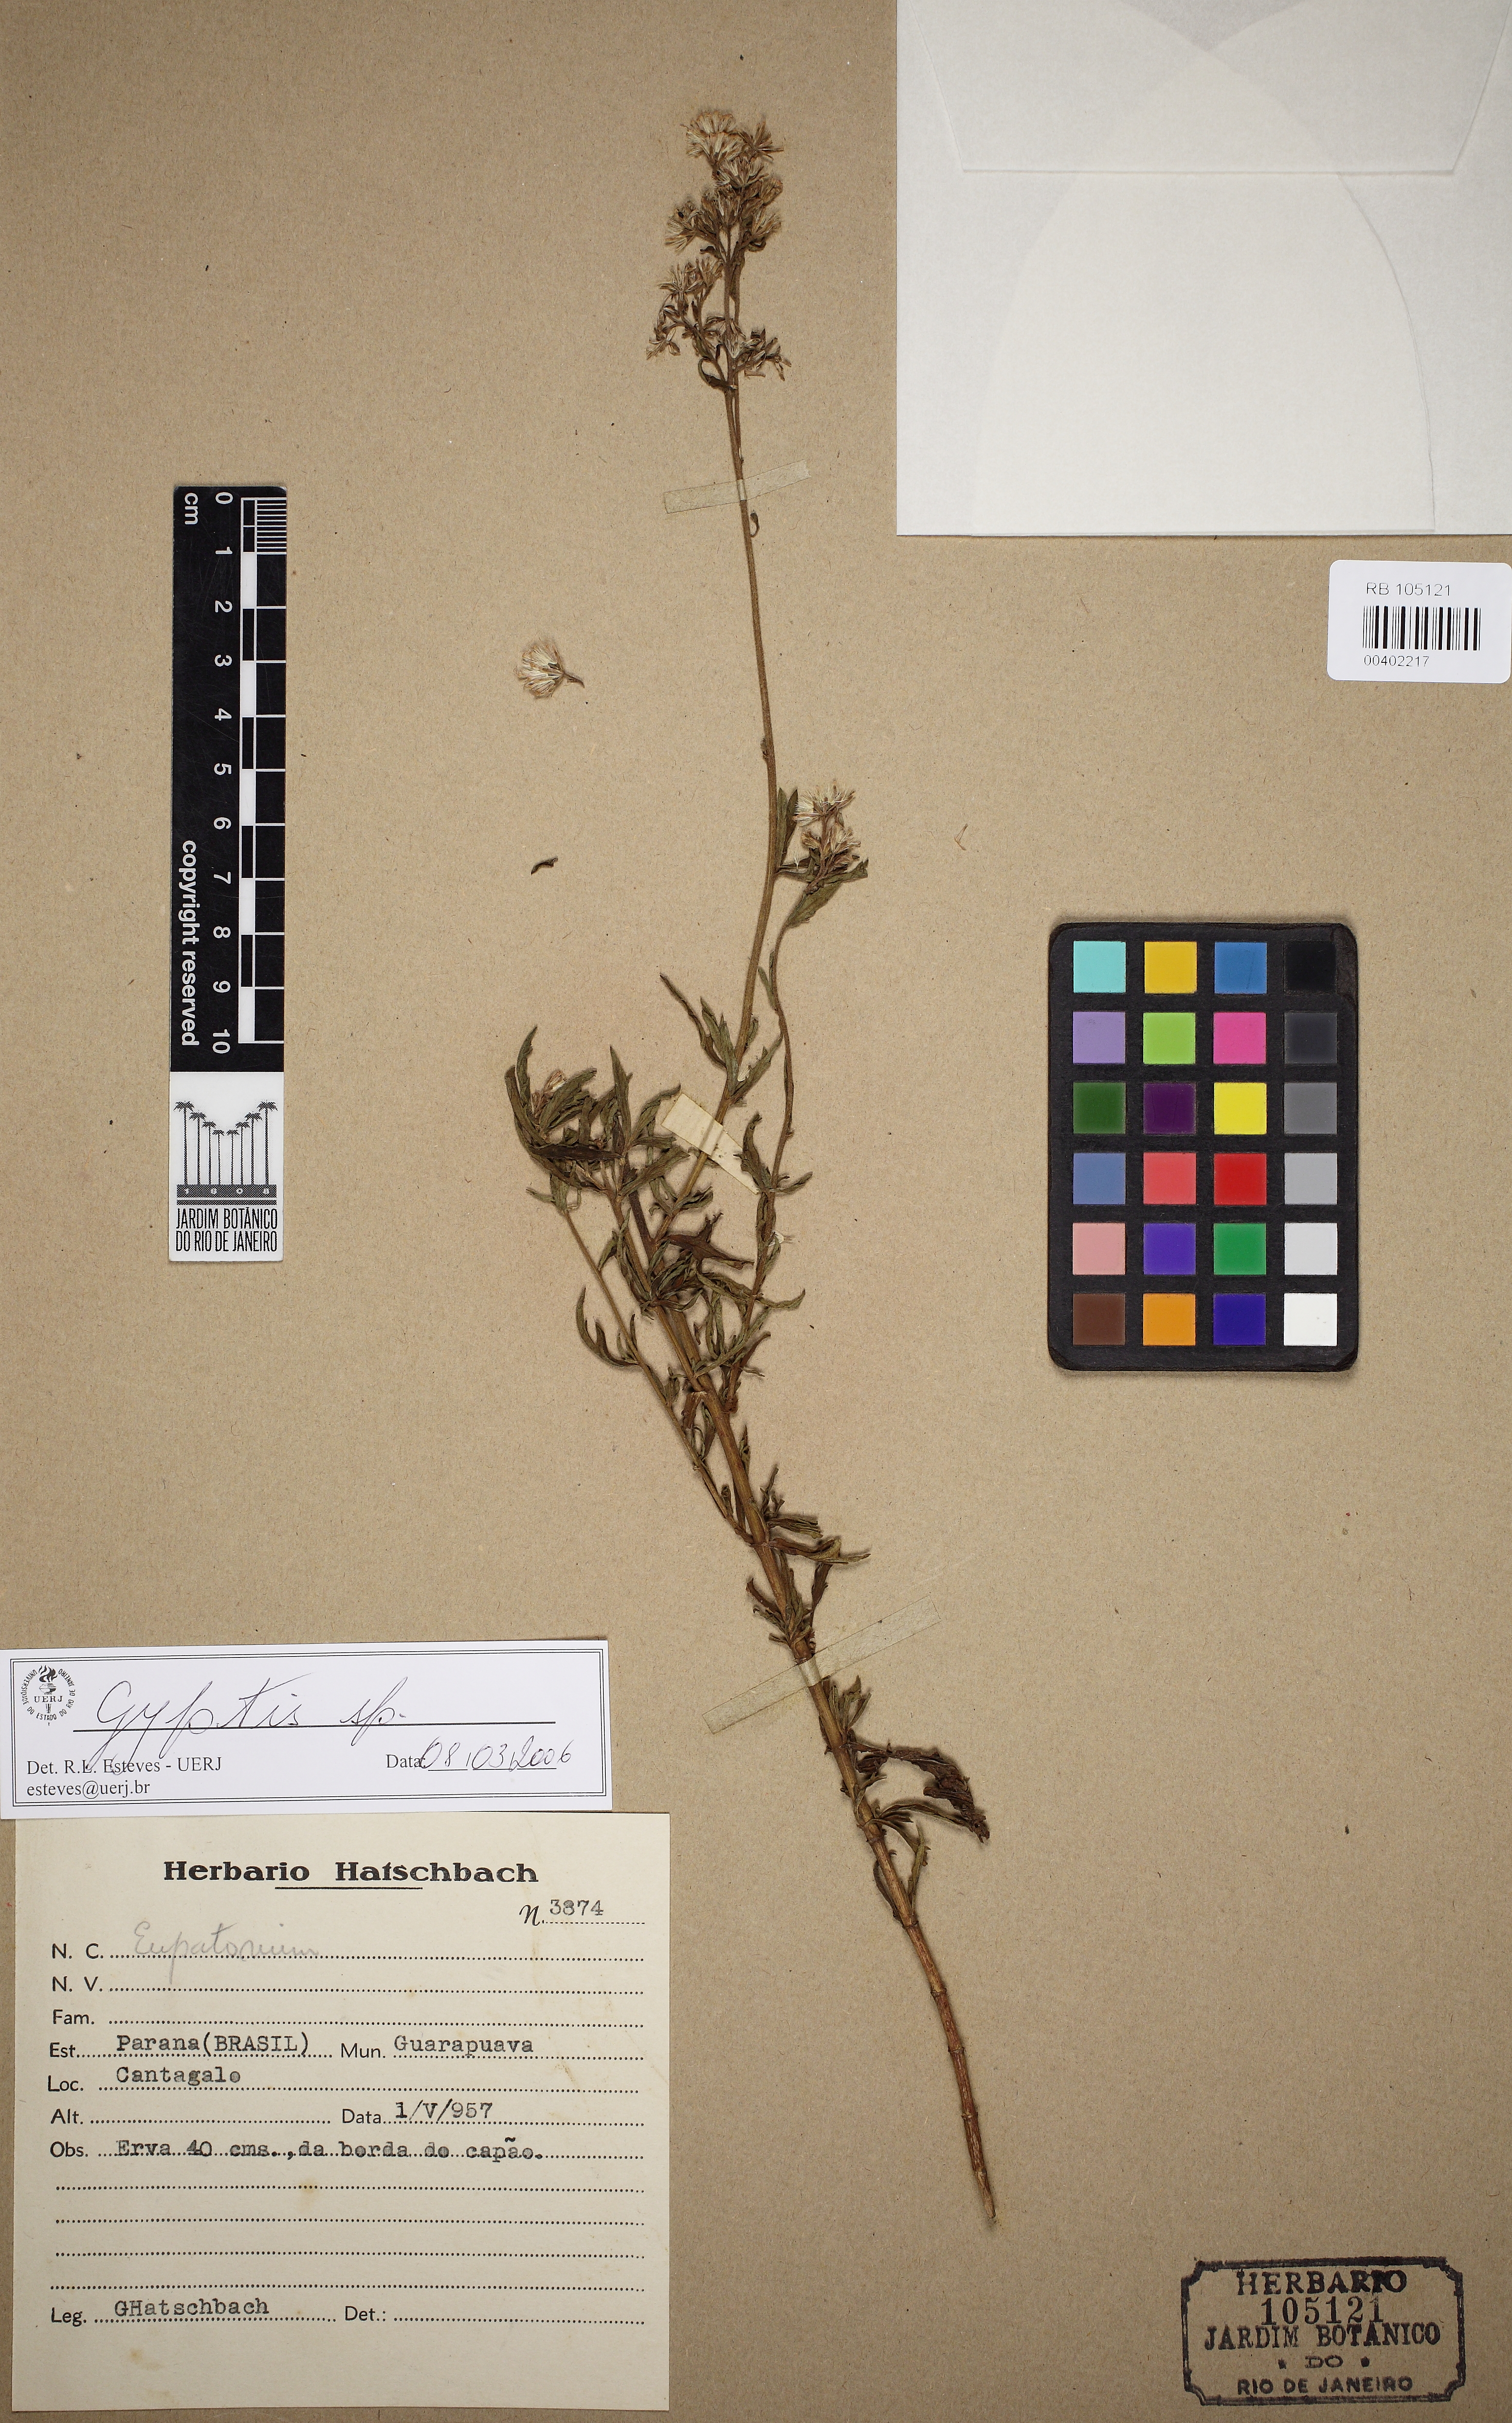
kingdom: Plantae
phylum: Tracheophyta
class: Magnoliopsida
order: Asterales
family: Asteraceae
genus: Gyptis
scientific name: Gyptis
